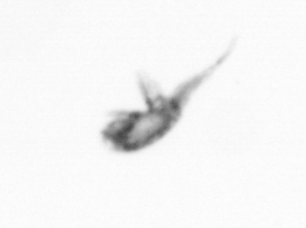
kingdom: Animalia
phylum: Arthropoda
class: Copepoda
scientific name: Copepoda
